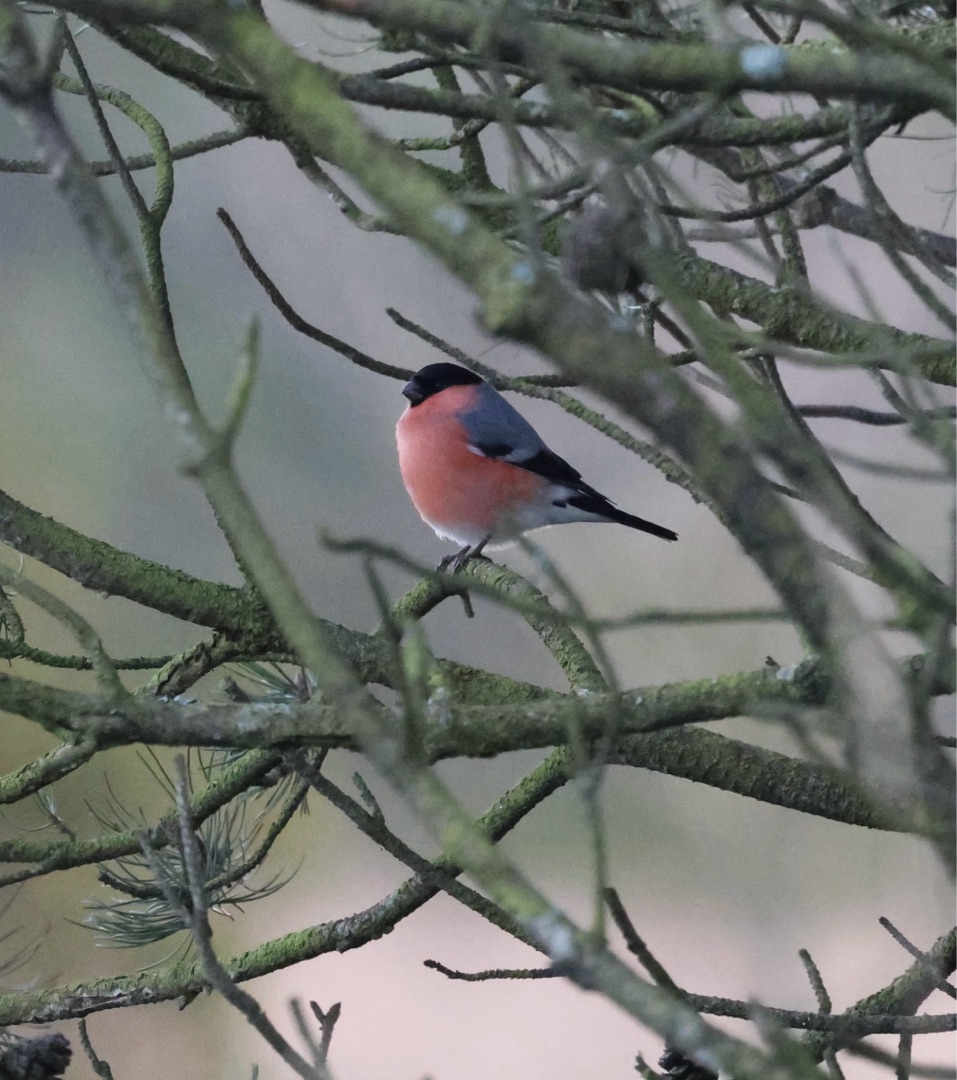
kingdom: Animalia
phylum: Chordata
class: Aves
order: Passeriformes
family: Fringillidae
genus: Pyrrhula
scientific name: Pyrrhula pyrrhula
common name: Dompap
